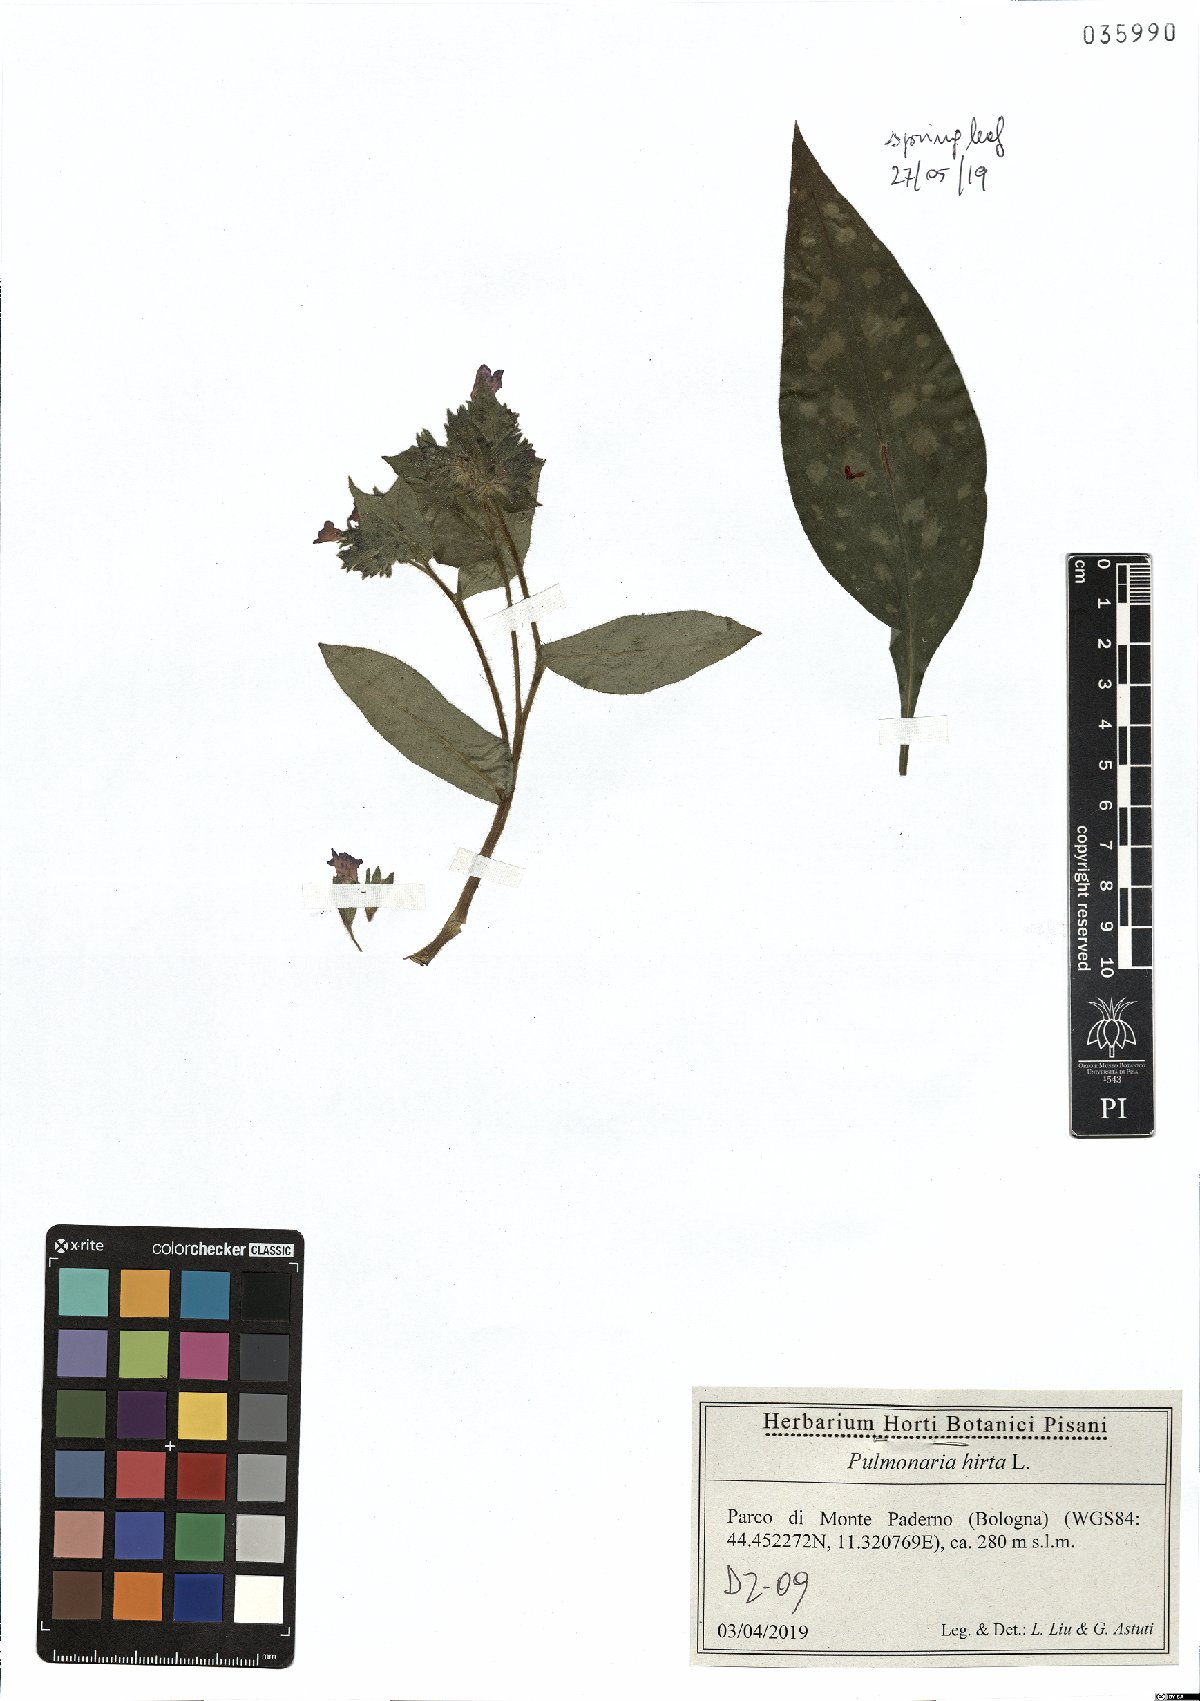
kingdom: Plantae
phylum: Tracheophyta
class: Magnoliopsida
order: Boraginales
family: Boraginaceae
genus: Pulmonaria
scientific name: Pulmonaria hirta
